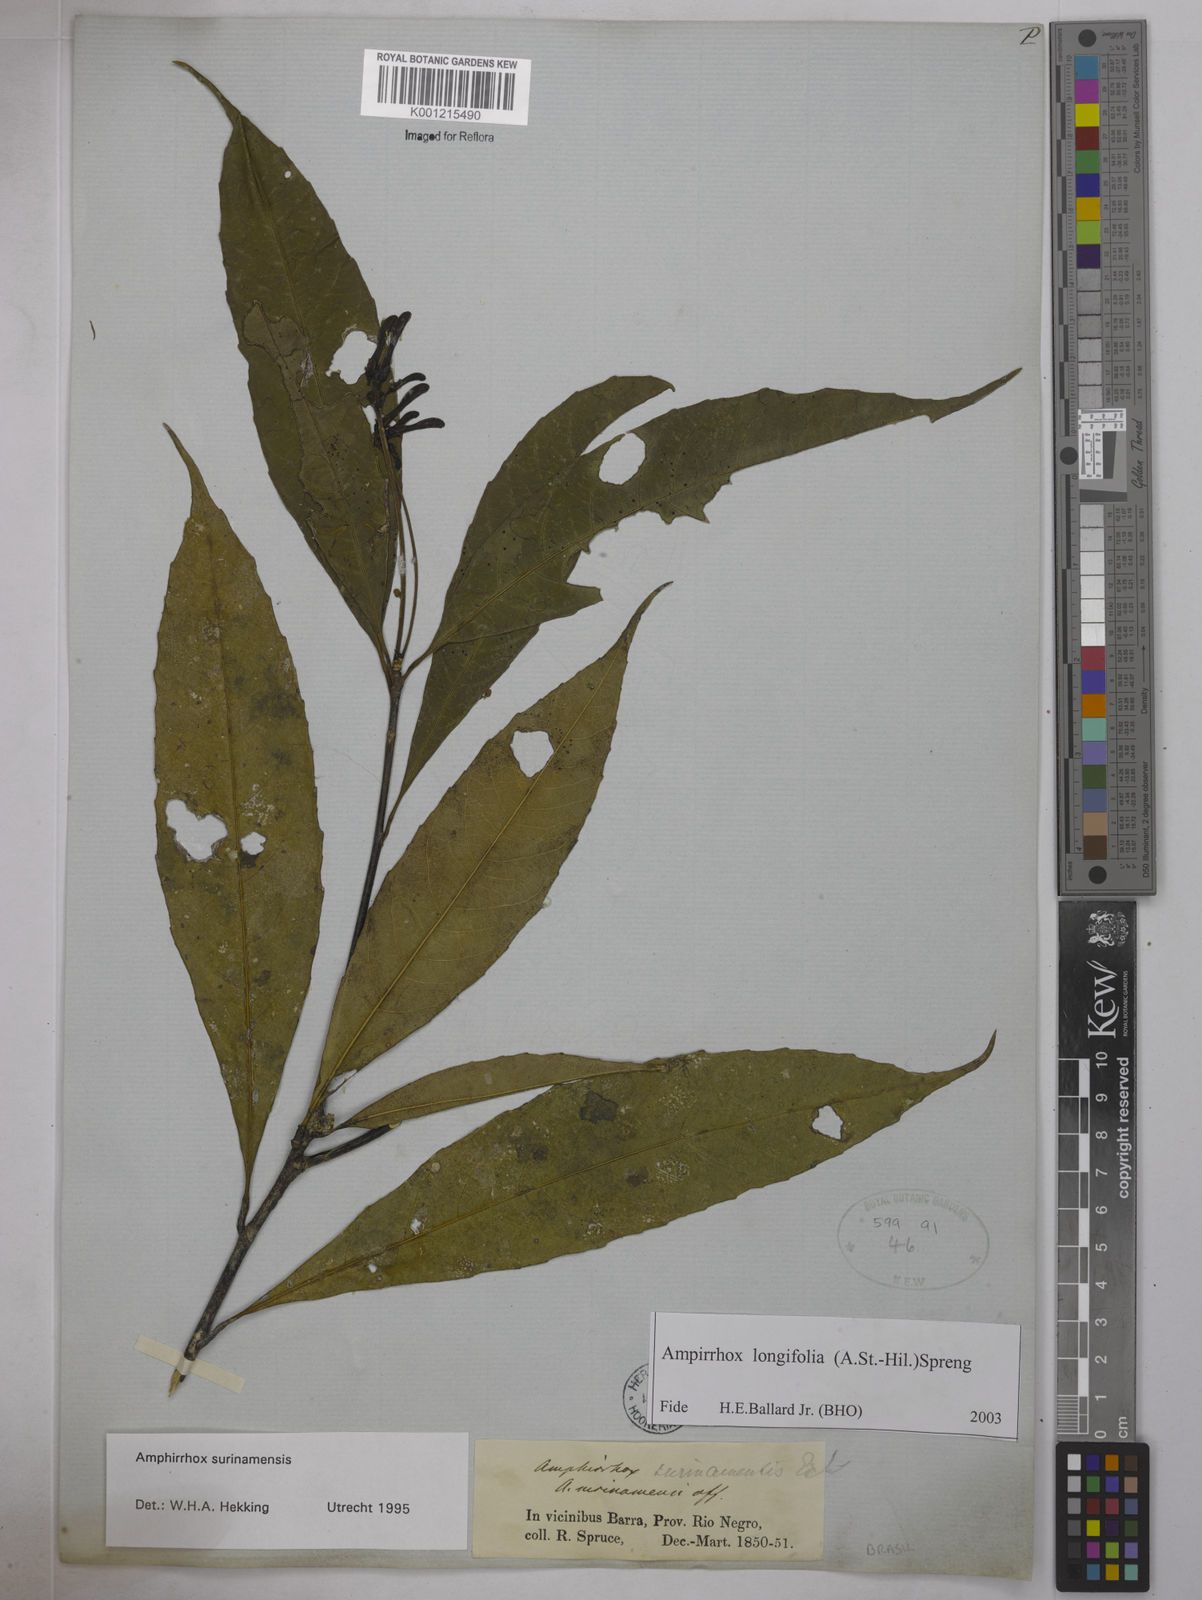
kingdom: Plantae
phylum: Tracheophyta
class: Magnoliopsida
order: Malpighiales
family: Violaceae
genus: Amphirrhox
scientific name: Amphirrhox longifolia
